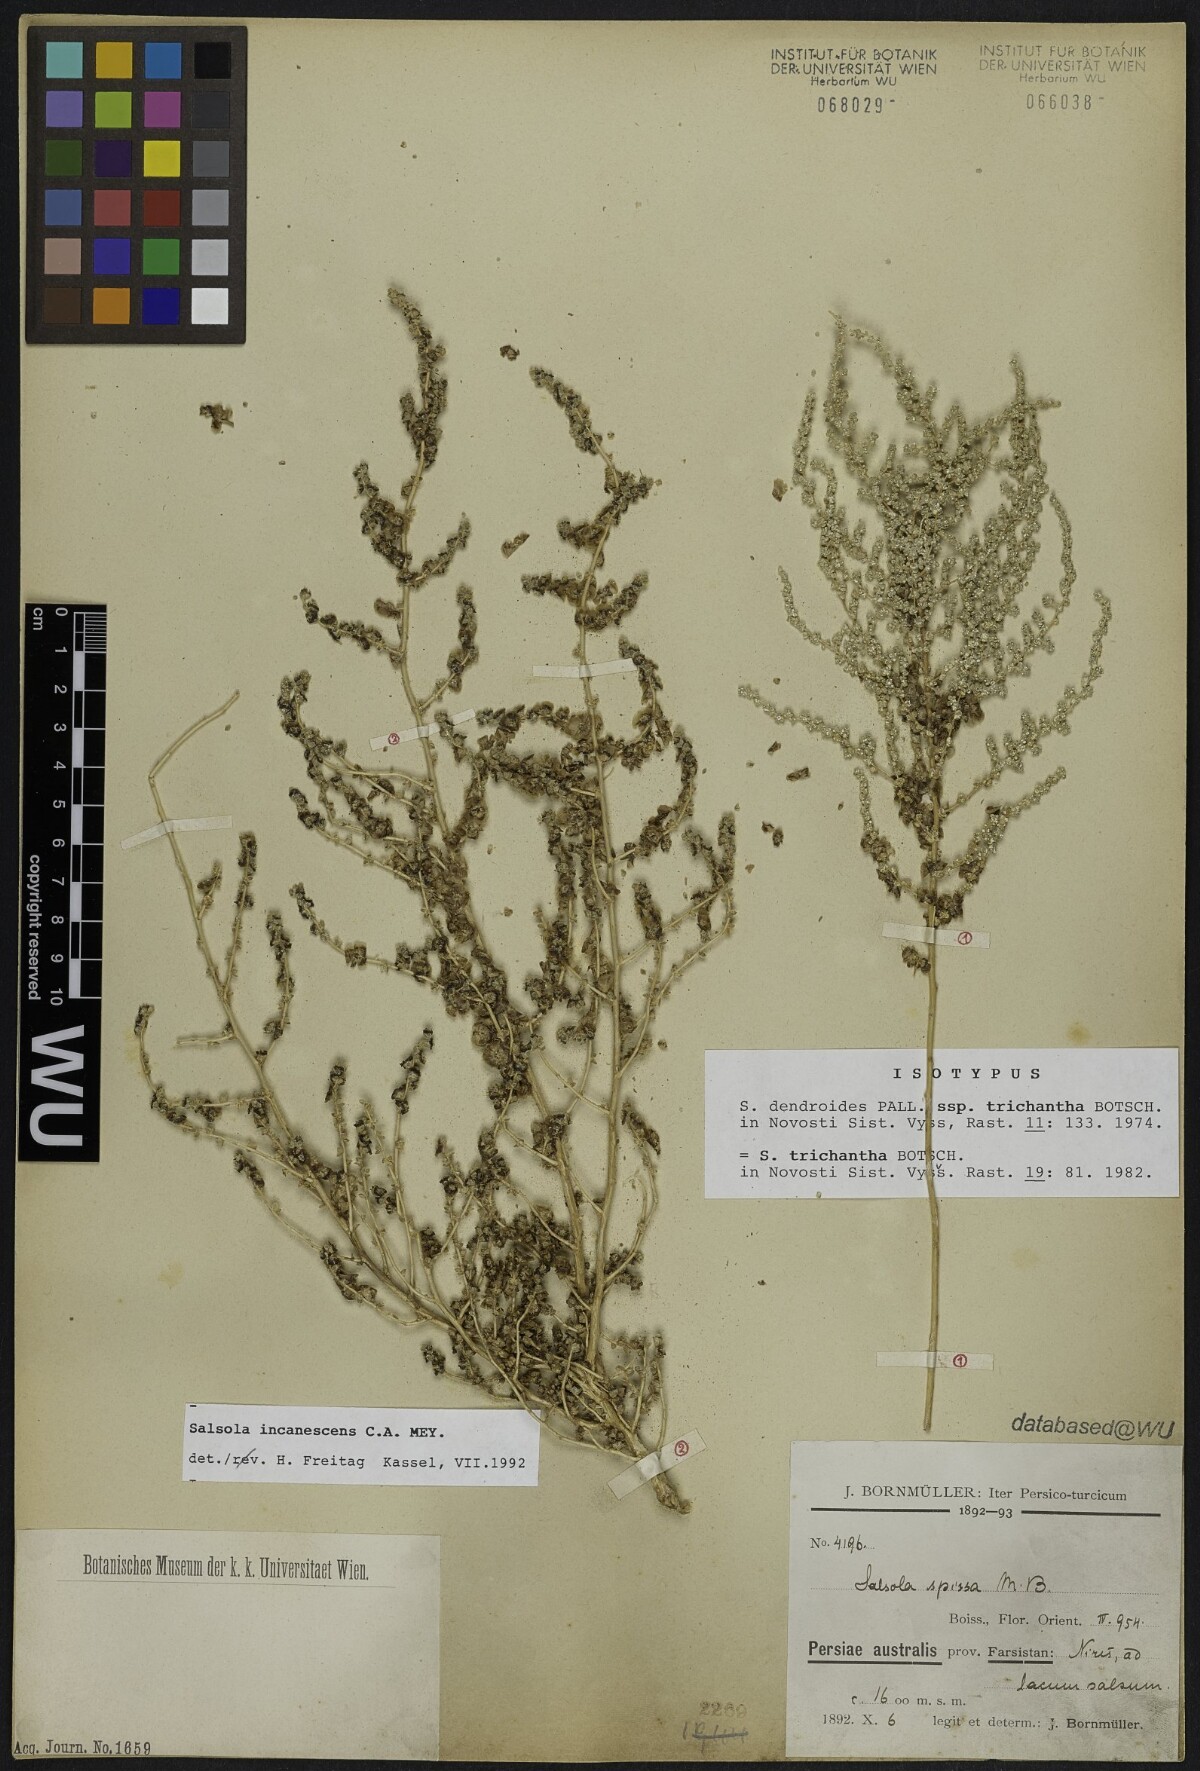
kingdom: Plantae
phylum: Tracheophyta
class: Magnoliopsida
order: Caryophyllales
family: Amaranthaceae
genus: Nitrosalsola
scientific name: Nitrosalsola dendroides
